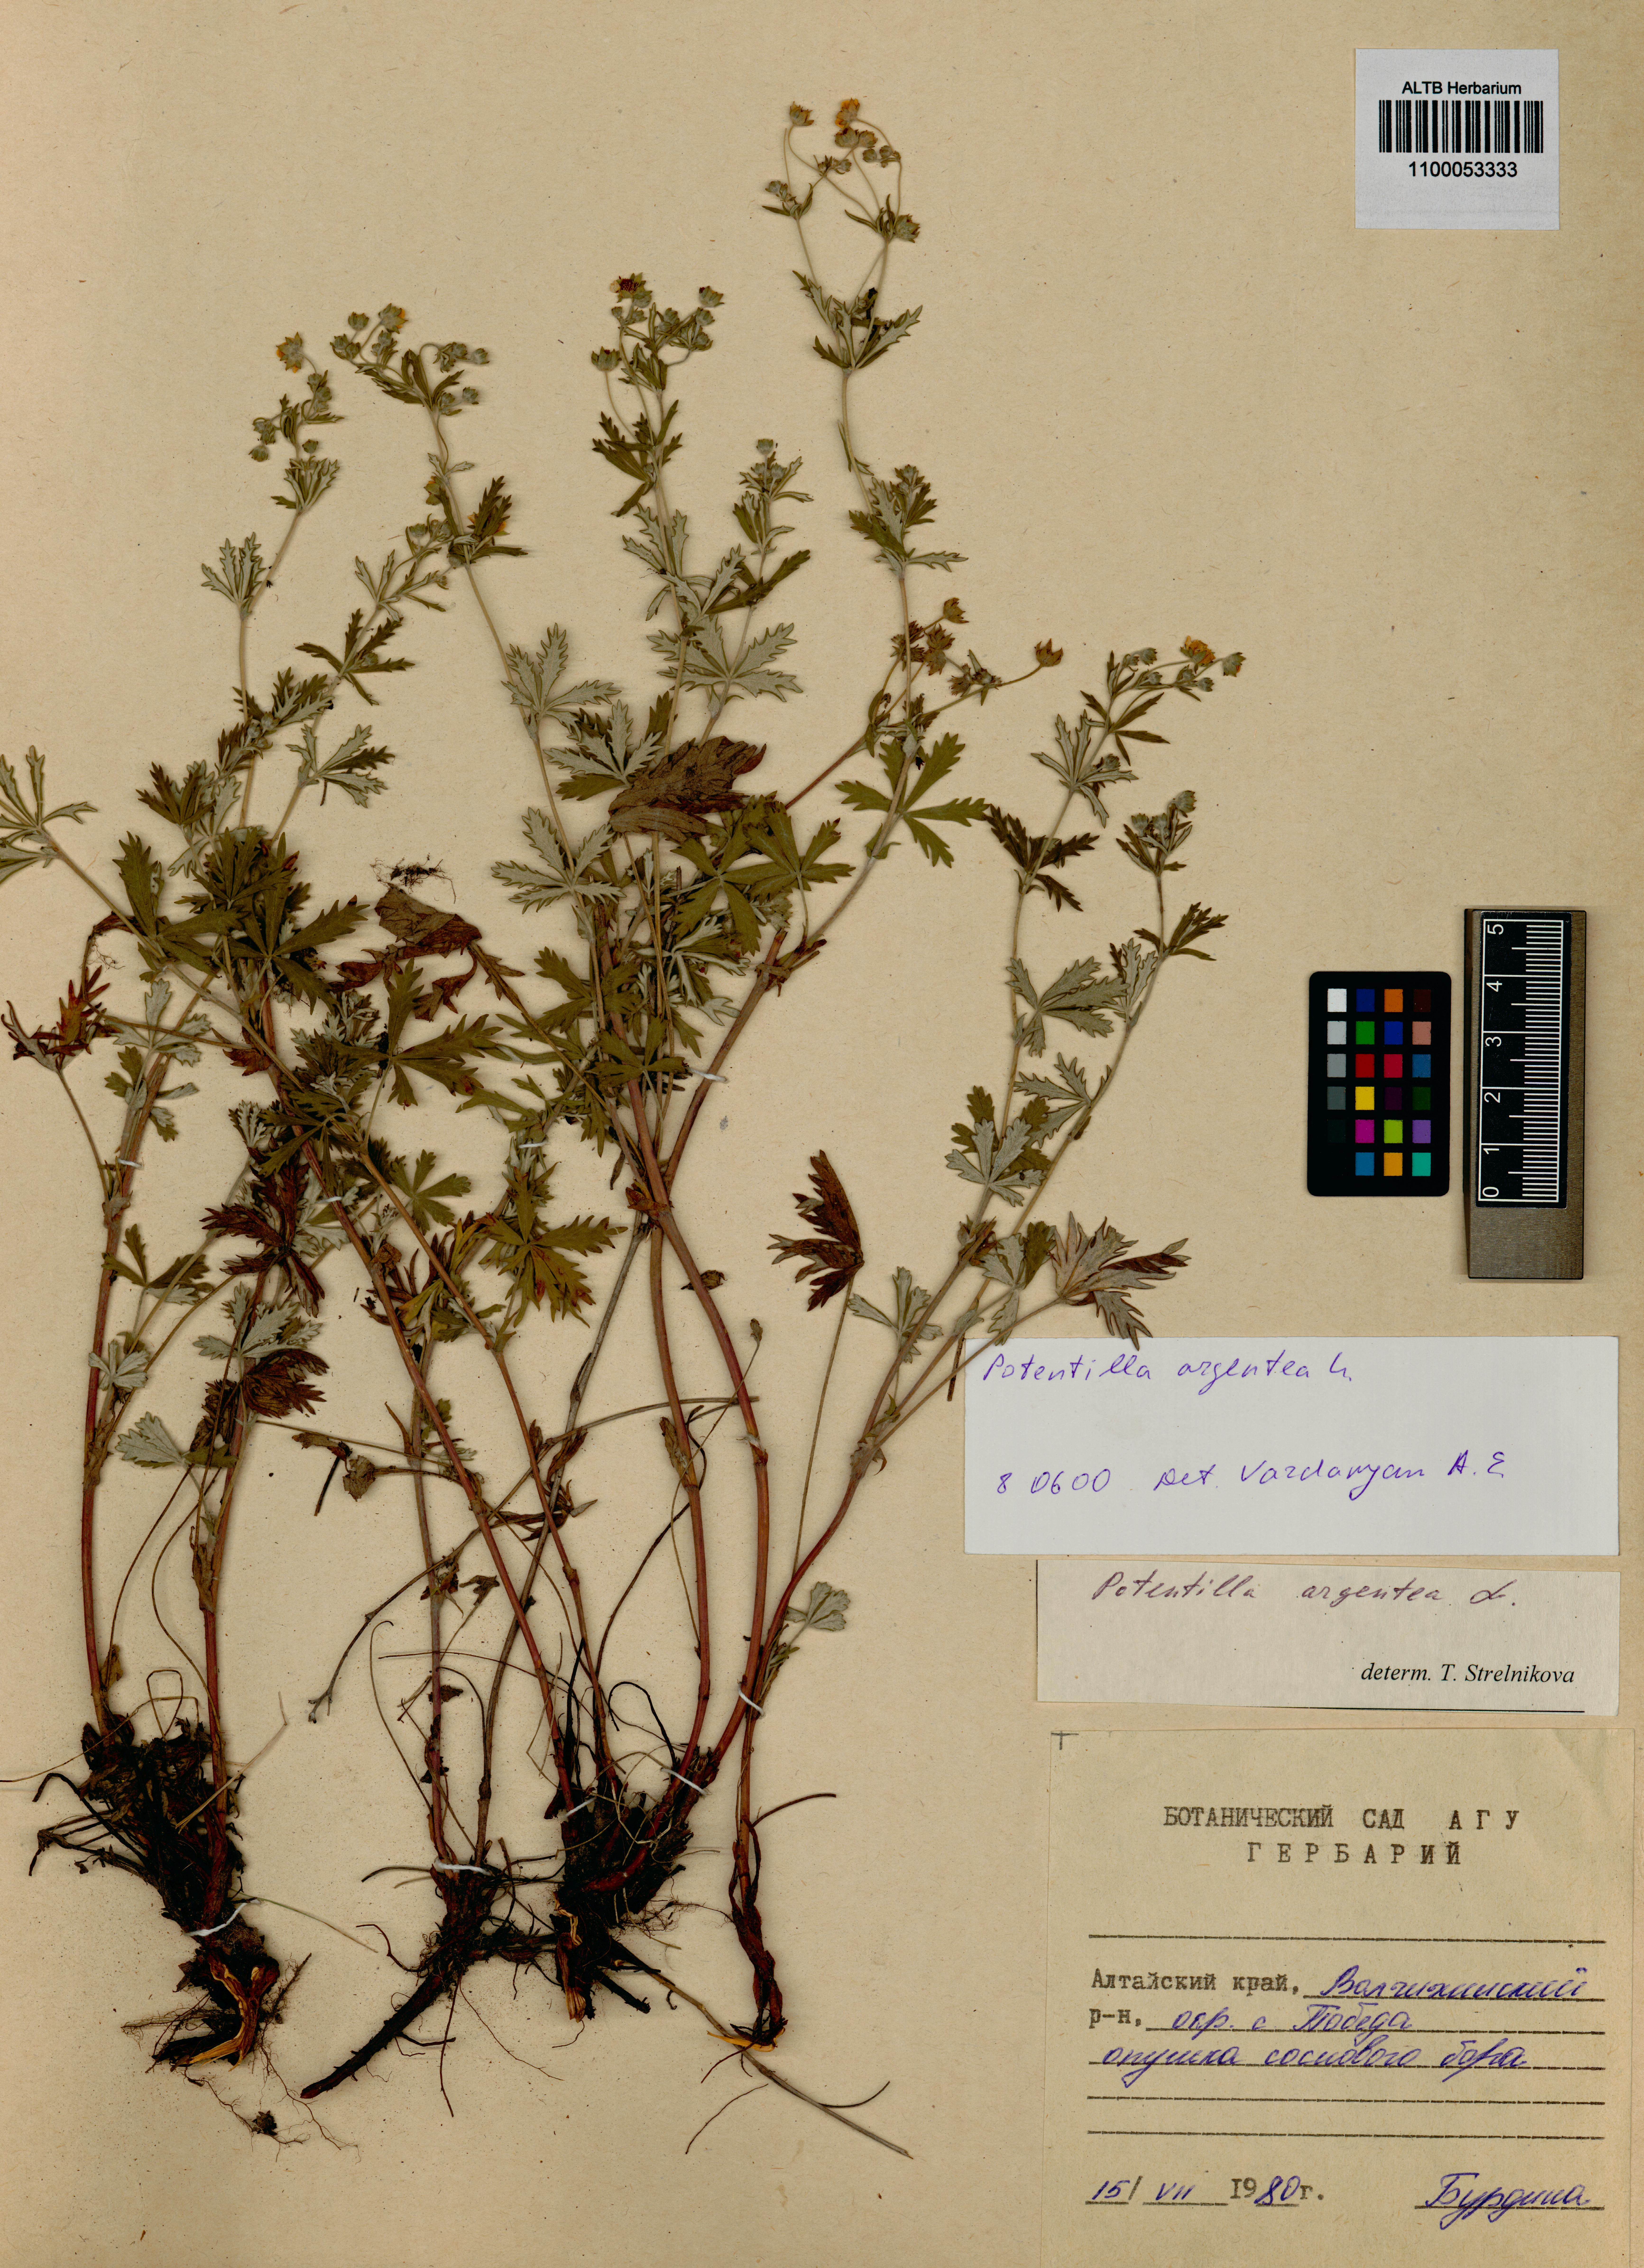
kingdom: Plantae
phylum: Tracheophyta
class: Magnoliopsida
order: Rosales
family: Rosaceae
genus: Potentilla
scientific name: Potentilla argentea
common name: Hoary cinquefoil
